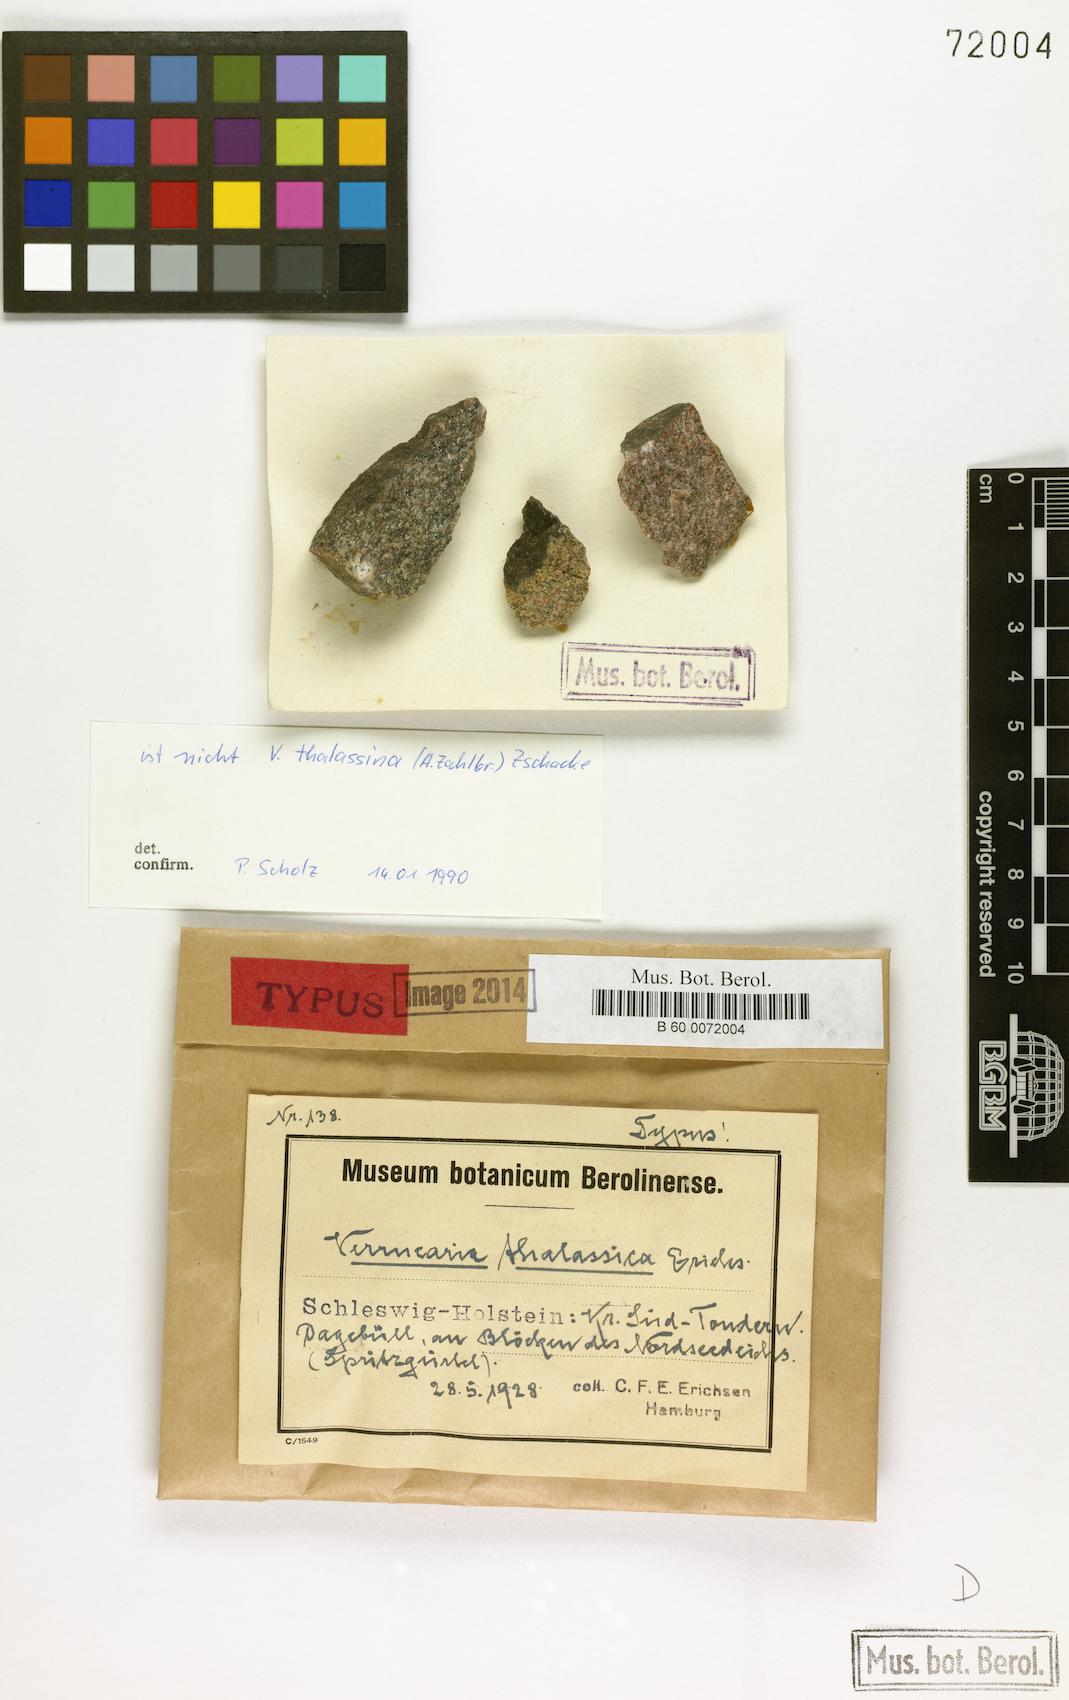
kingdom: Fungi
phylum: Ascomycota
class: Eurotiomycetes
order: Verrucariales
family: Verrucariaceae
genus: Verrucaria
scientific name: Verrucaria thalassina
